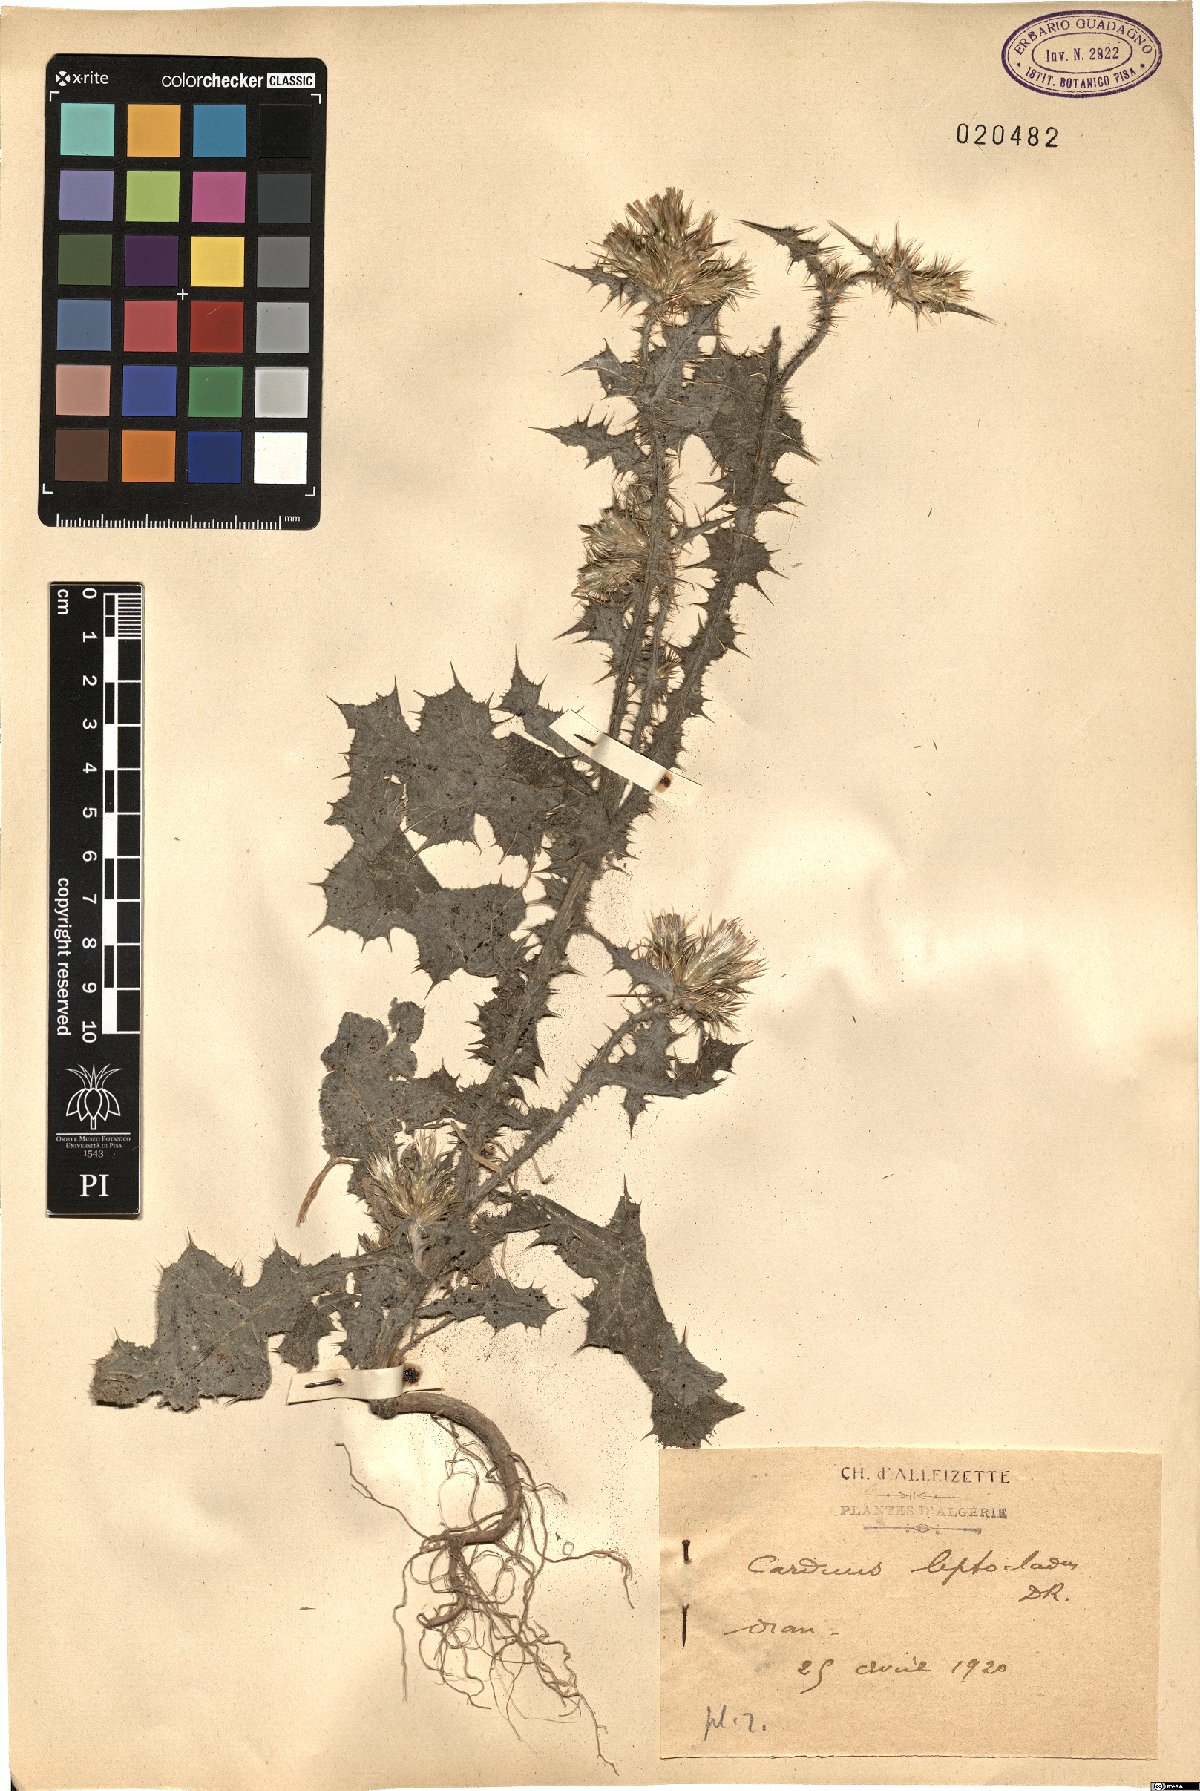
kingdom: Plantae
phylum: Tracheophyta
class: Magnoliopsida
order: Asterales
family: Asteraceae
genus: Carduus
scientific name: Carduus leptocladus
